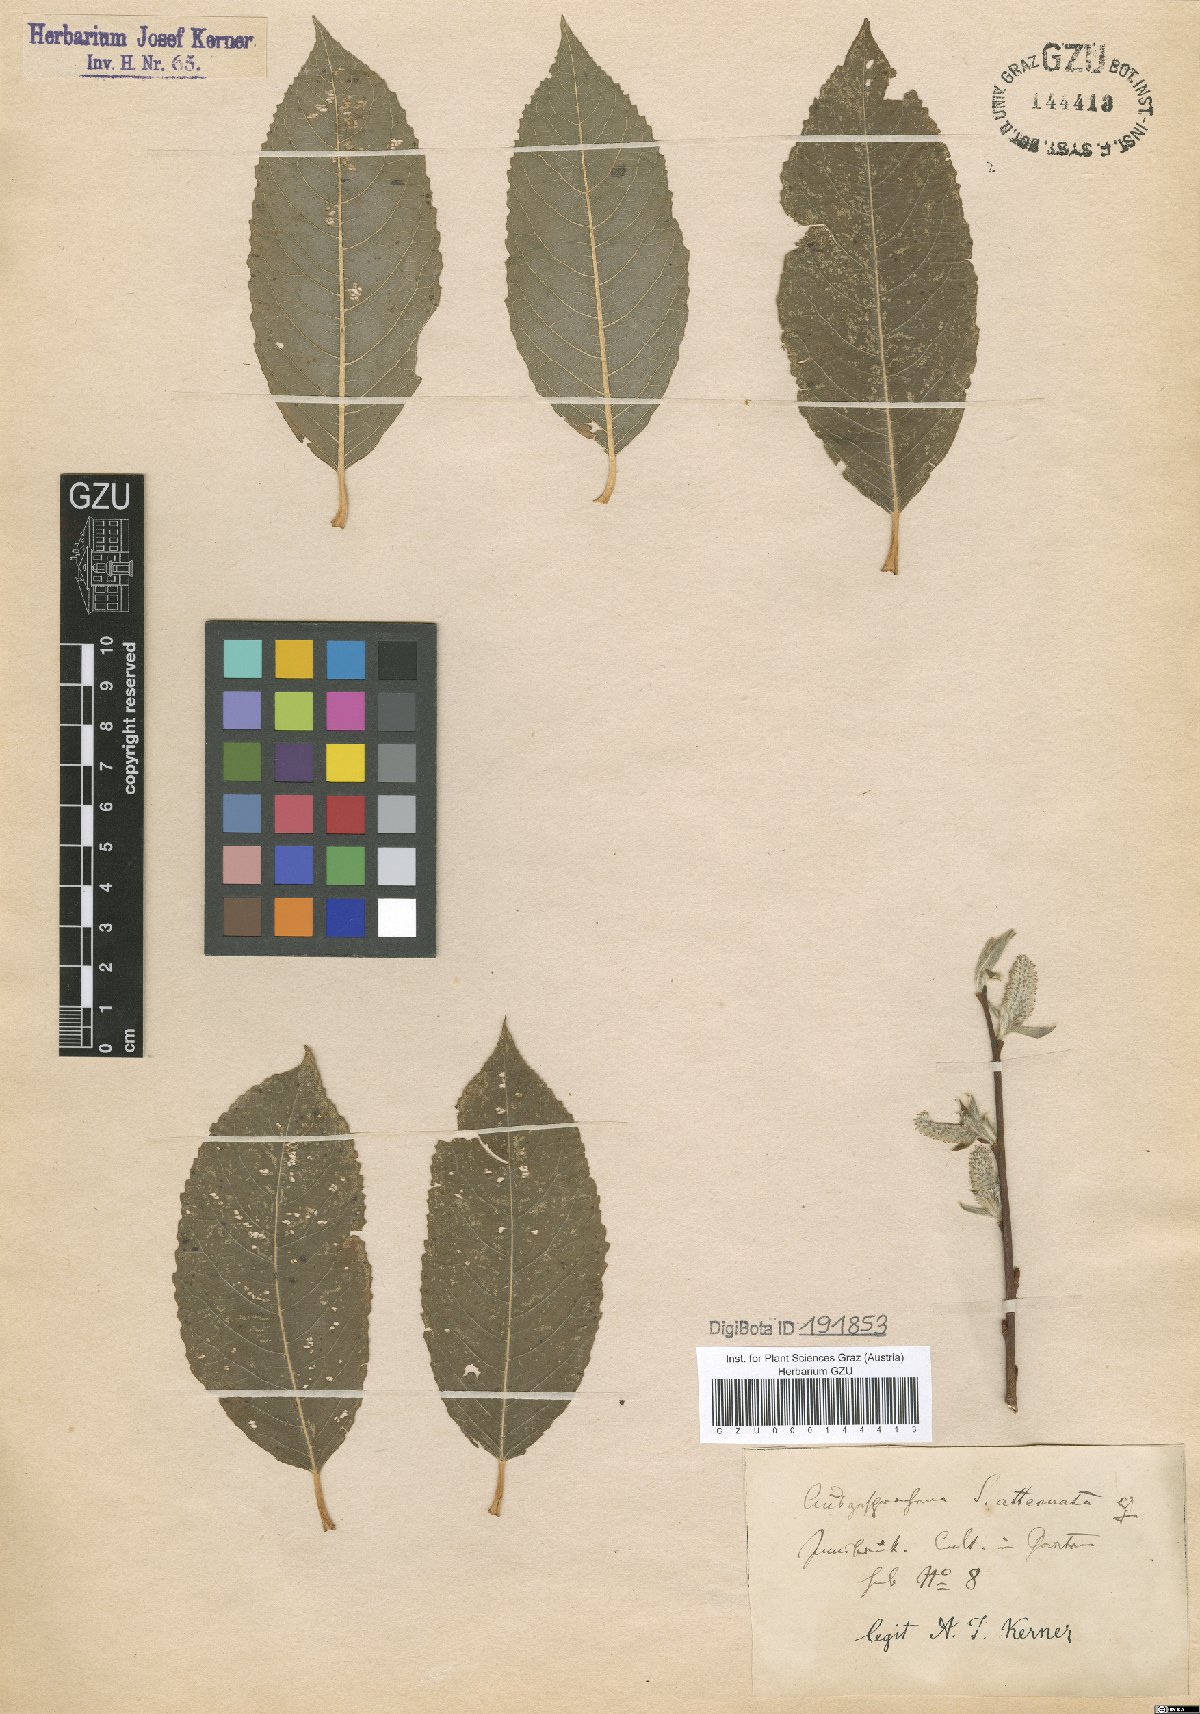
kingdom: Plantae
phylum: Tracheophyta
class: Magnoliopsida
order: Malpighiales
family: Salicaceae
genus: Salix
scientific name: Salix appendiculata
